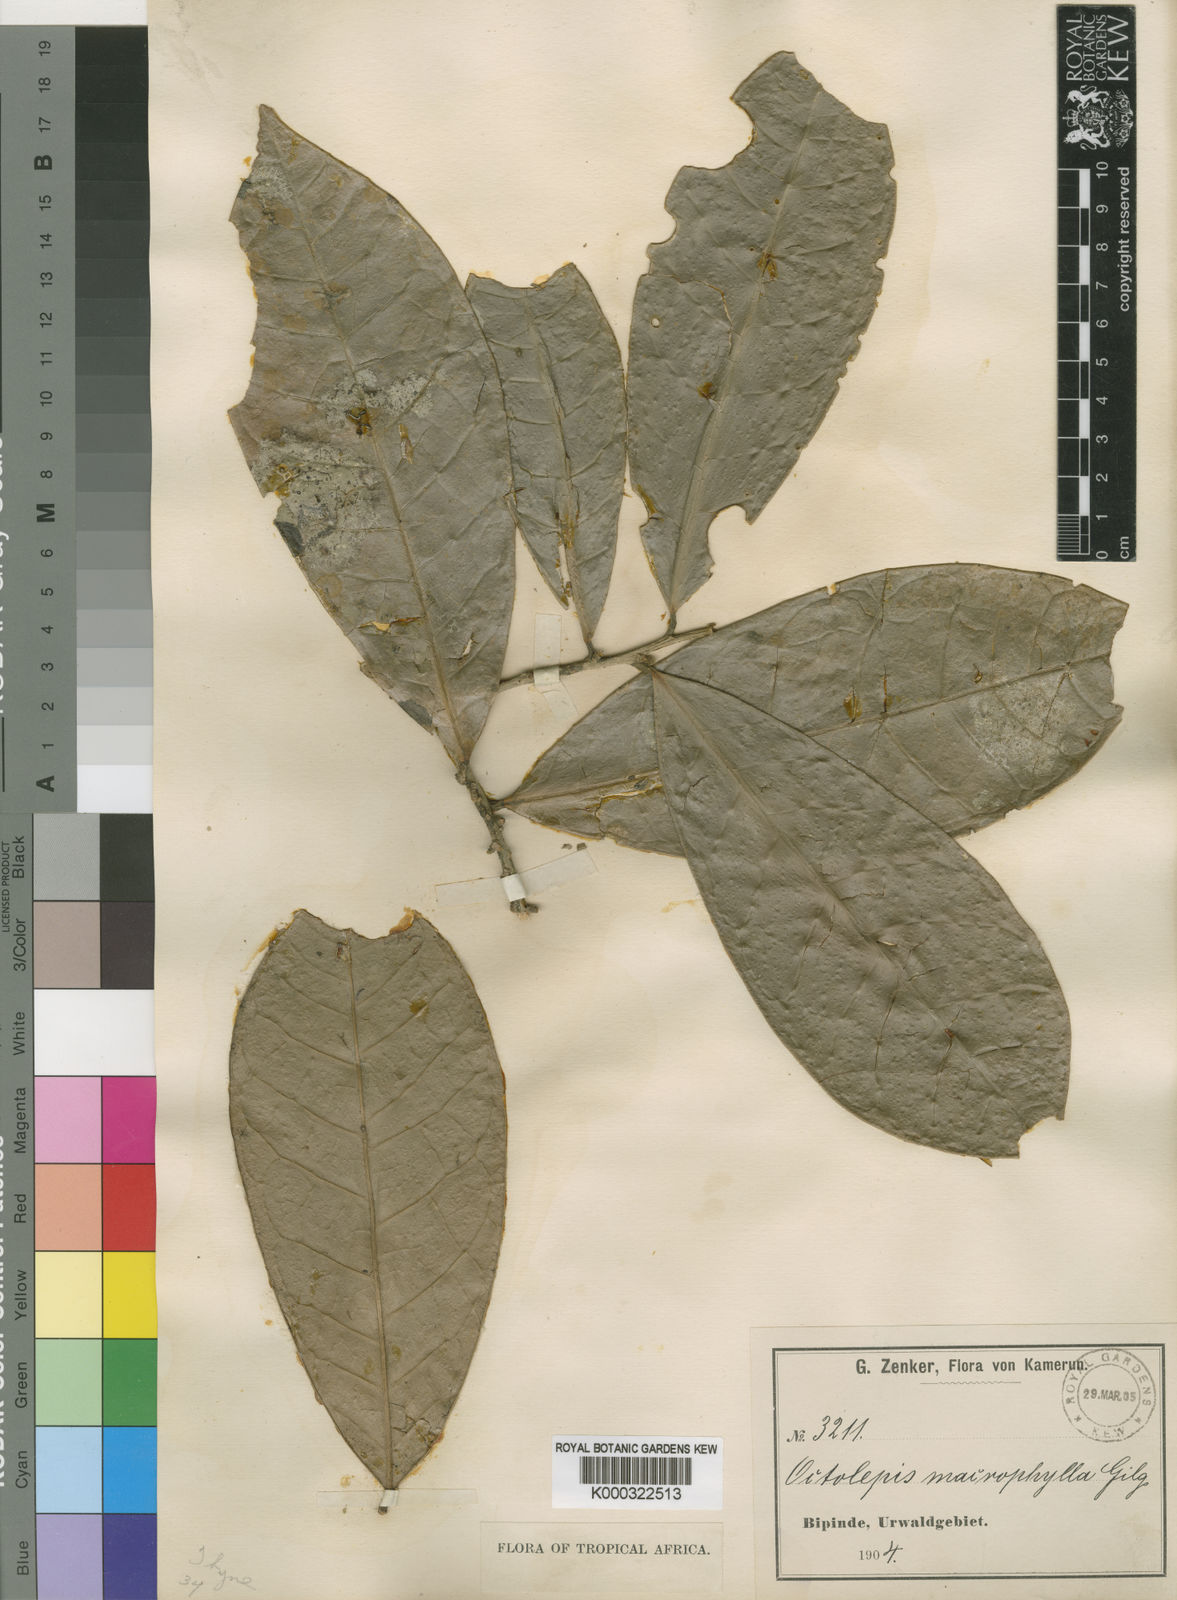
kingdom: Plantae
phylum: Tracheophyta
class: Magnoliopsida
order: Malvales
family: Thymelaeaceae
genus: Octolepis
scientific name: Octolepis casearia
